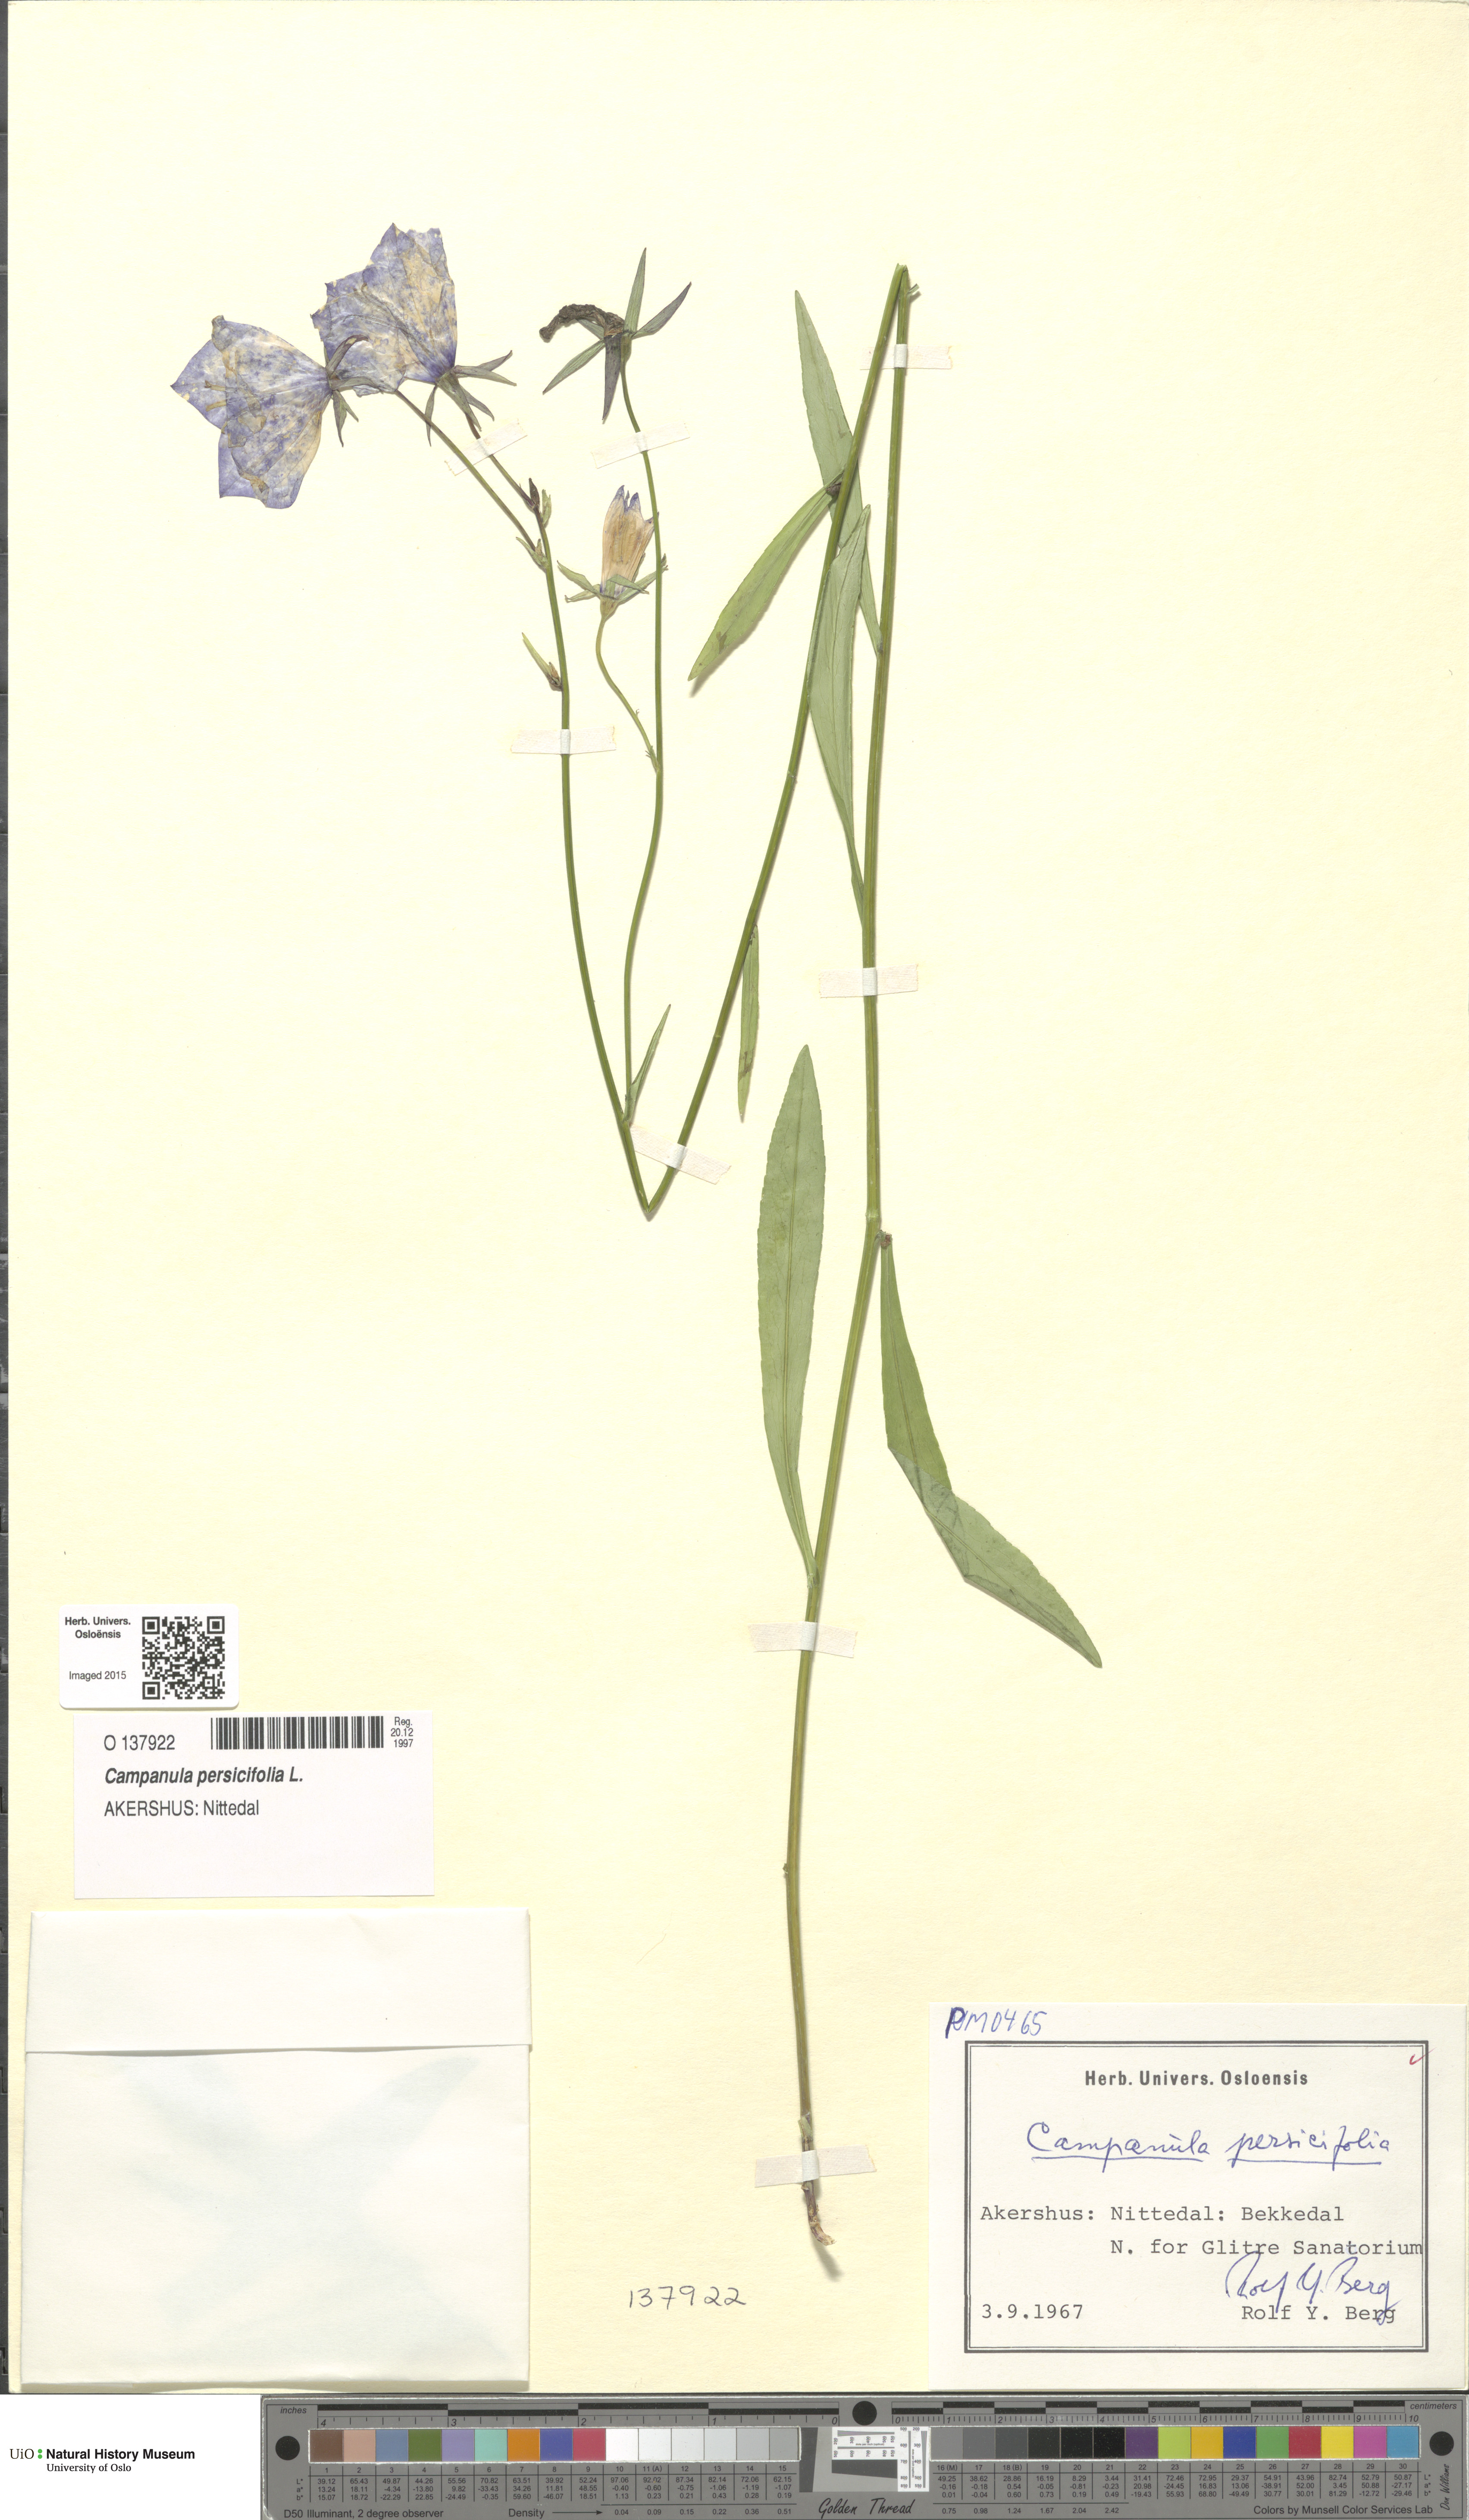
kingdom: Plantae
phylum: Tracheophyta
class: Magnoliopsida
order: Asterales
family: Campanulaceae
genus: Campanula
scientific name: Campanula persicifolia
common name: Peach-leaved bellflower
